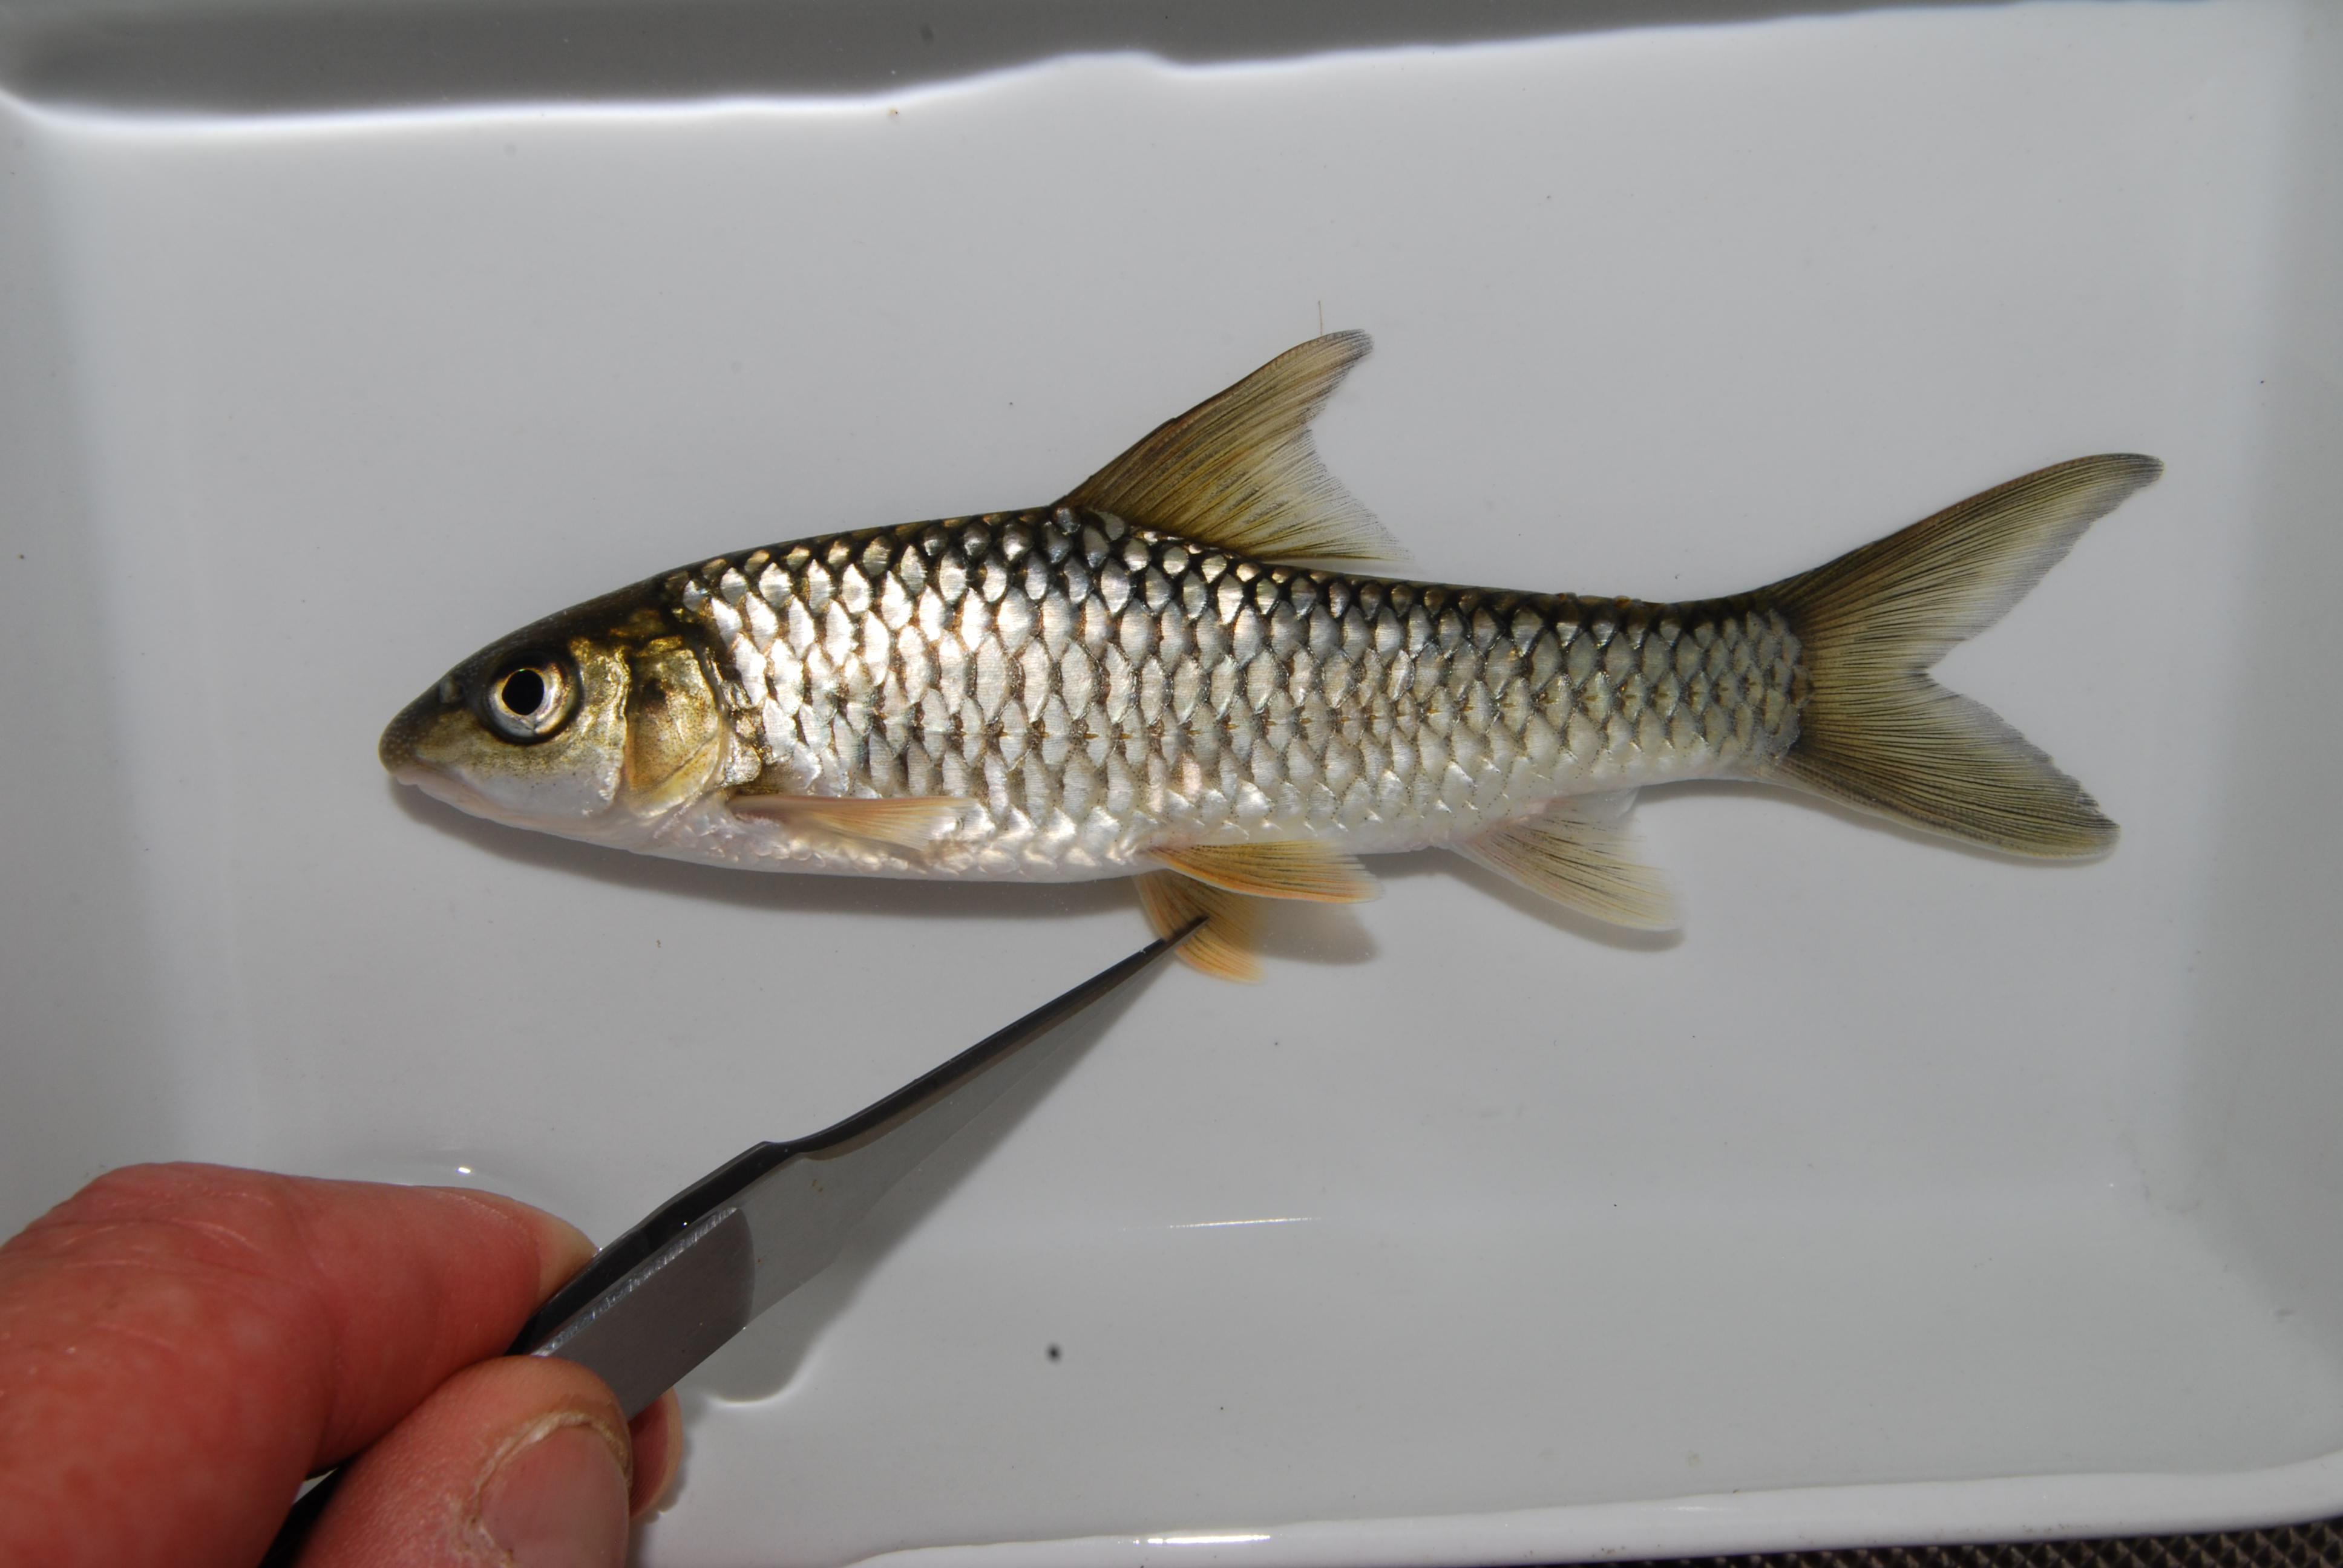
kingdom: Animalia
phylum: Chordata
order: Cypriniformes
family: Cyprinidae
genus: Labeobarbus
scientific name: Labeobarbus codringtonii
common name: Upper zambezi yellowfish
